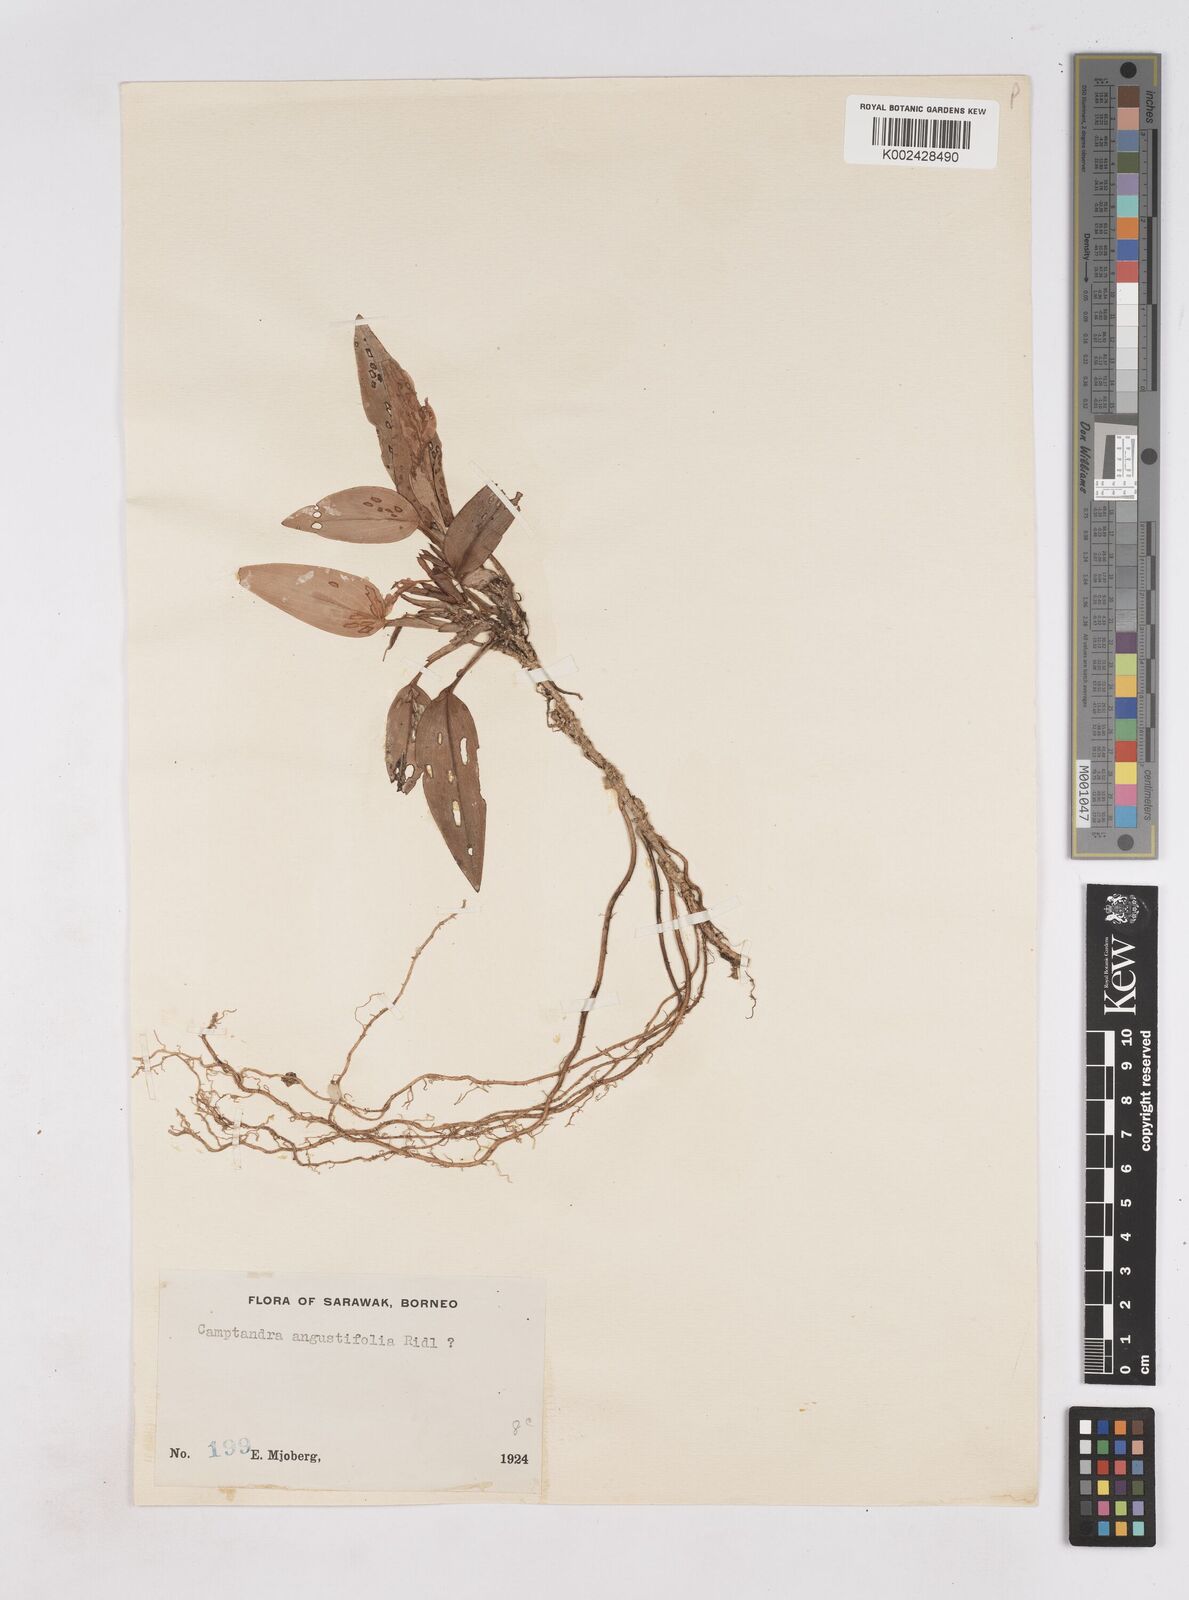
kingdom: Plantae
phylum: Tracheophyta
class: Liliopsida
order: Zingiberales
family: Zingiberaceae
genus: Boesenbergia
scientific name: Boesenbergia
